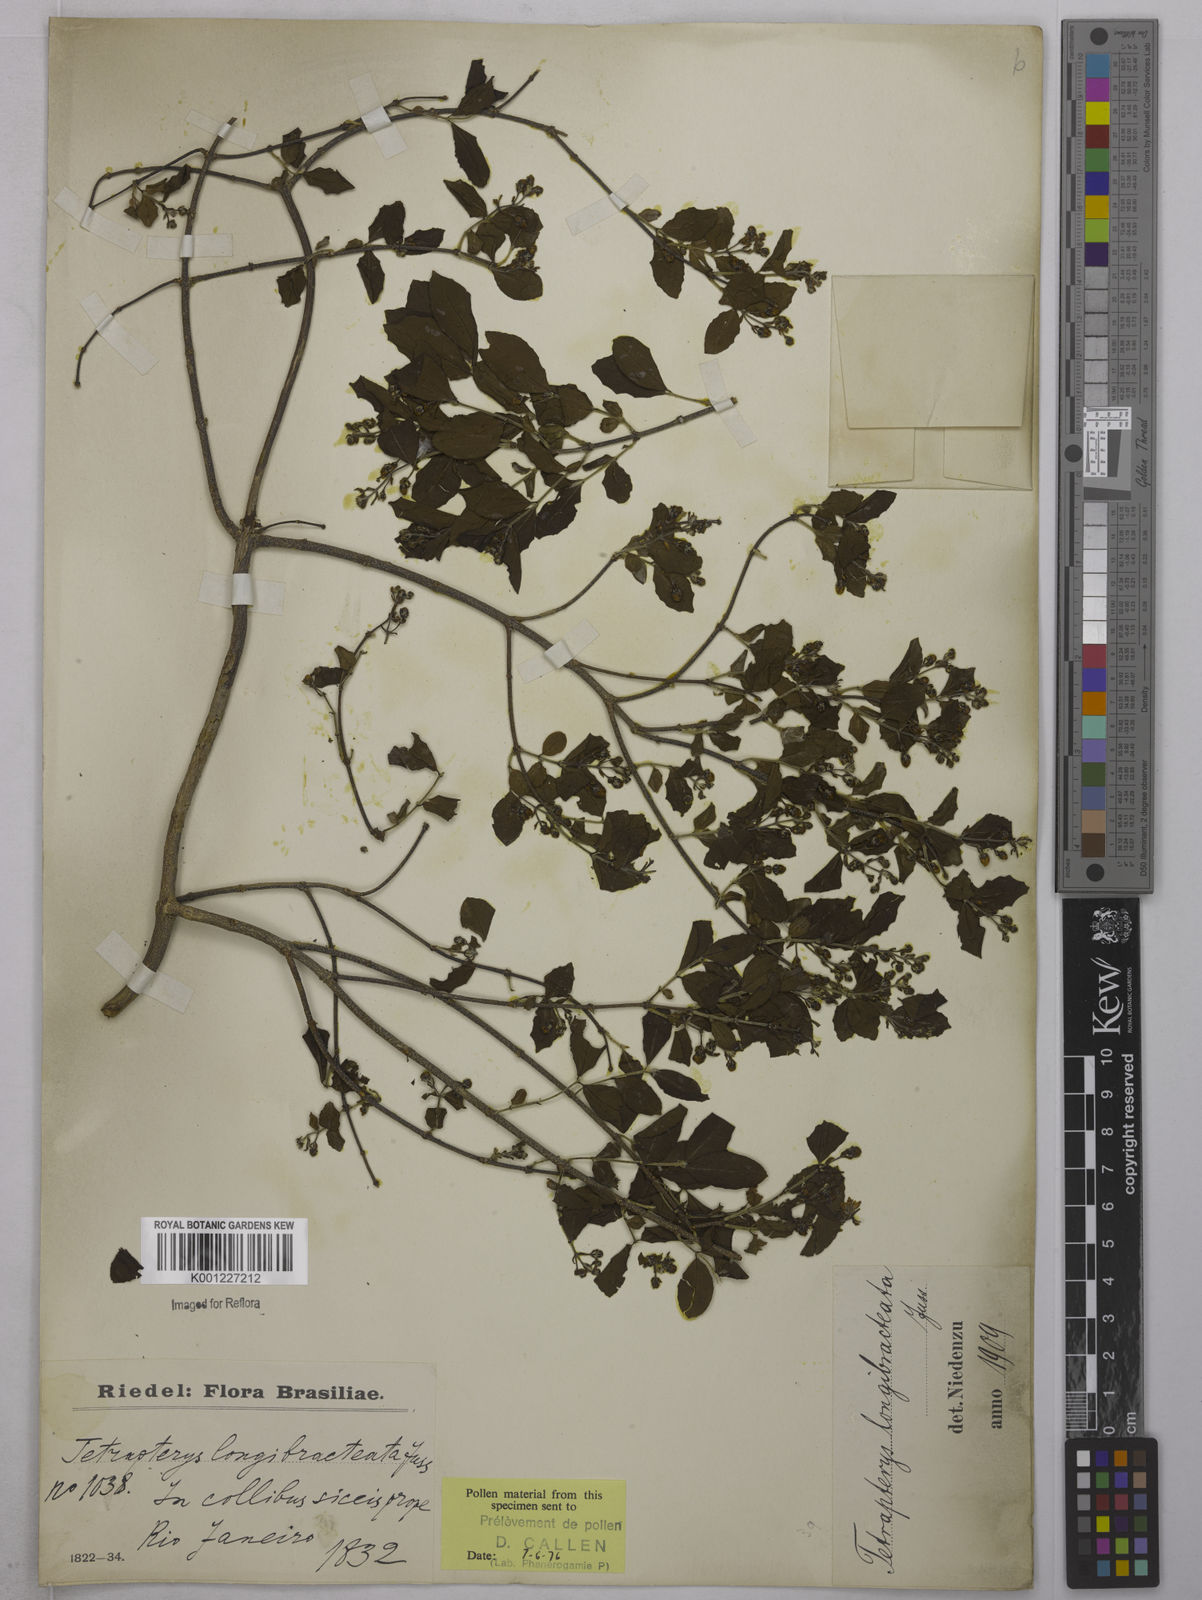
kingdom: Plantae
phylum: Tracheophyta
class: Magnoliopsida
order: Malpighiales
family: Malpighiaceae
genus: Glicophyllum
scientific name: Glicophyllum longibracteatum
